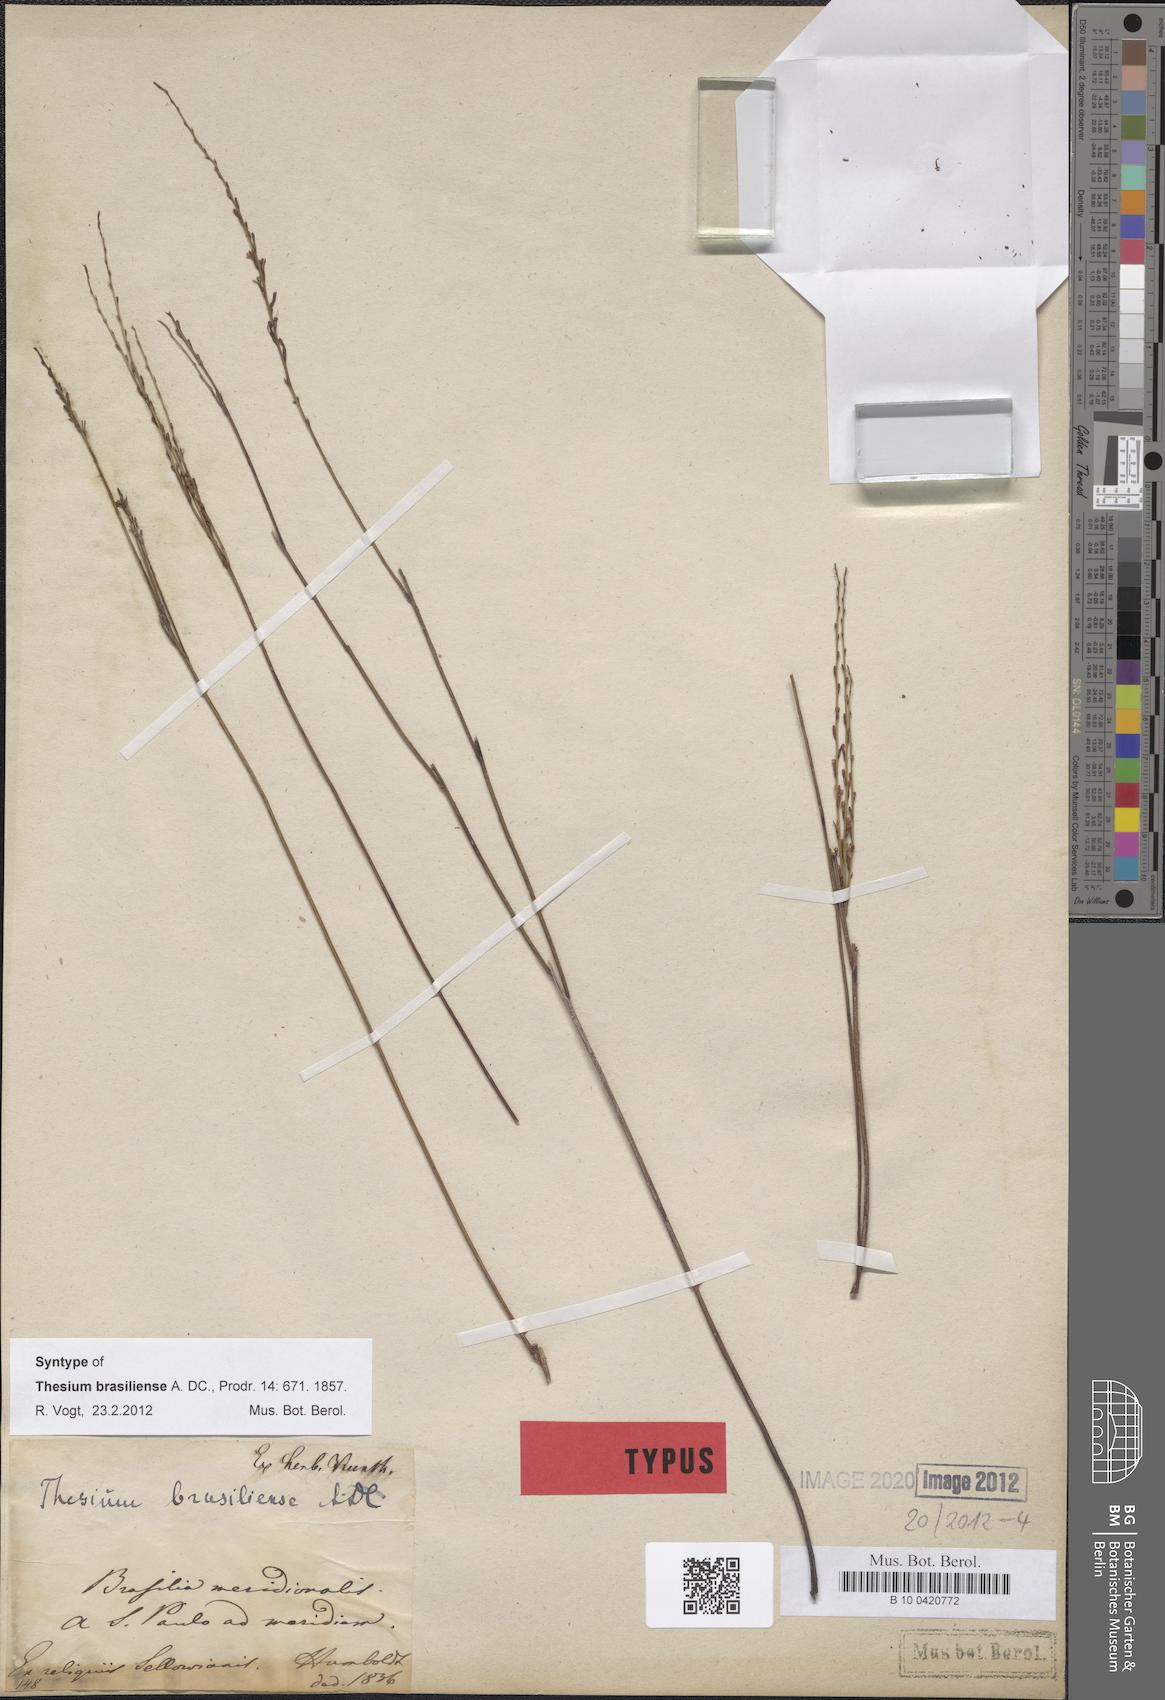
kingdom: Plantae
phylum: Tracheophyta
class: Magnoliopsida
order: Santalales
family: Thesiaceae
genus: Austroamericium
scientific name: Austroamericium brasiliense
